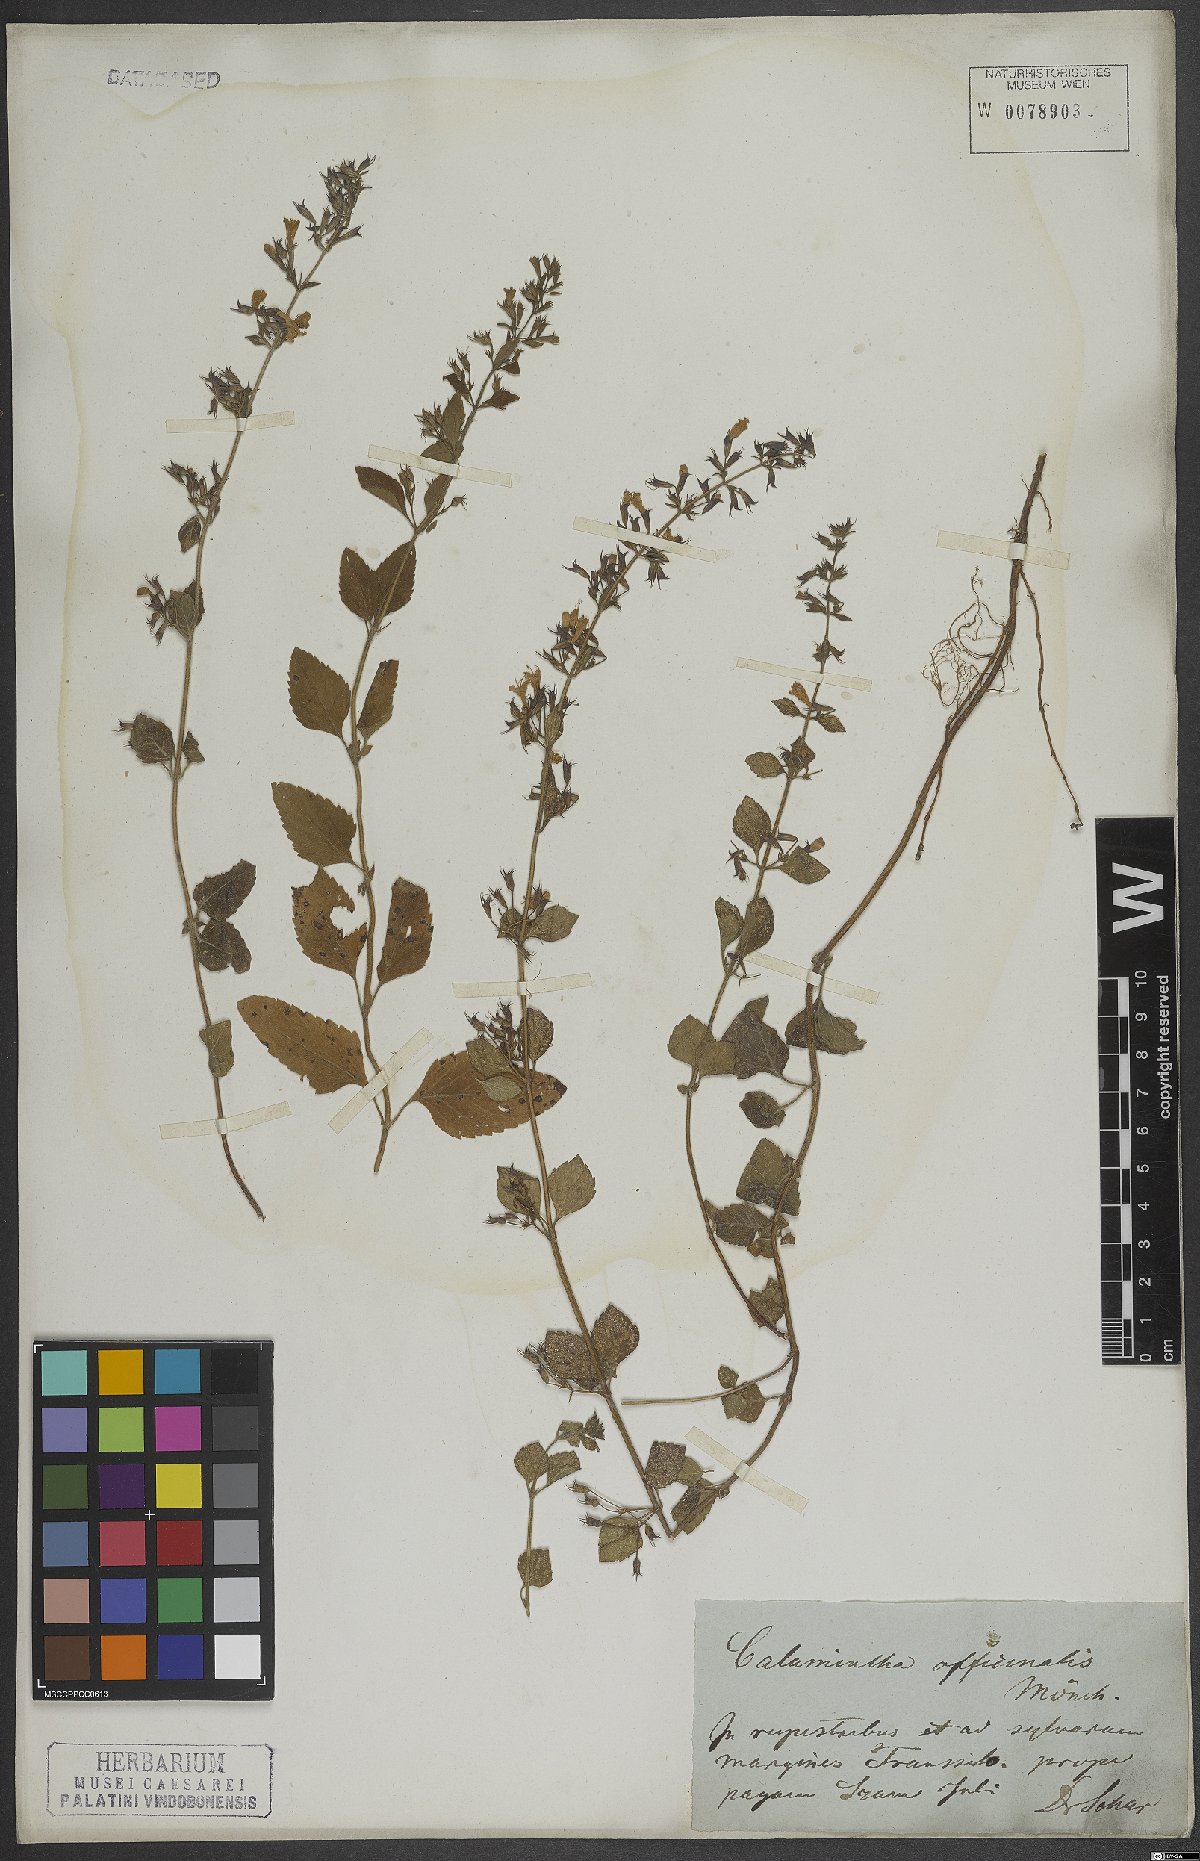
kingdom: Plantae
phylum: Tracheophyta
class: Magnoliopsida
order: Lamiales
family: Lamiaceae
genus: Clinopodium
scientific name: Clinopodium nepeta
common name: Lesser calamint
